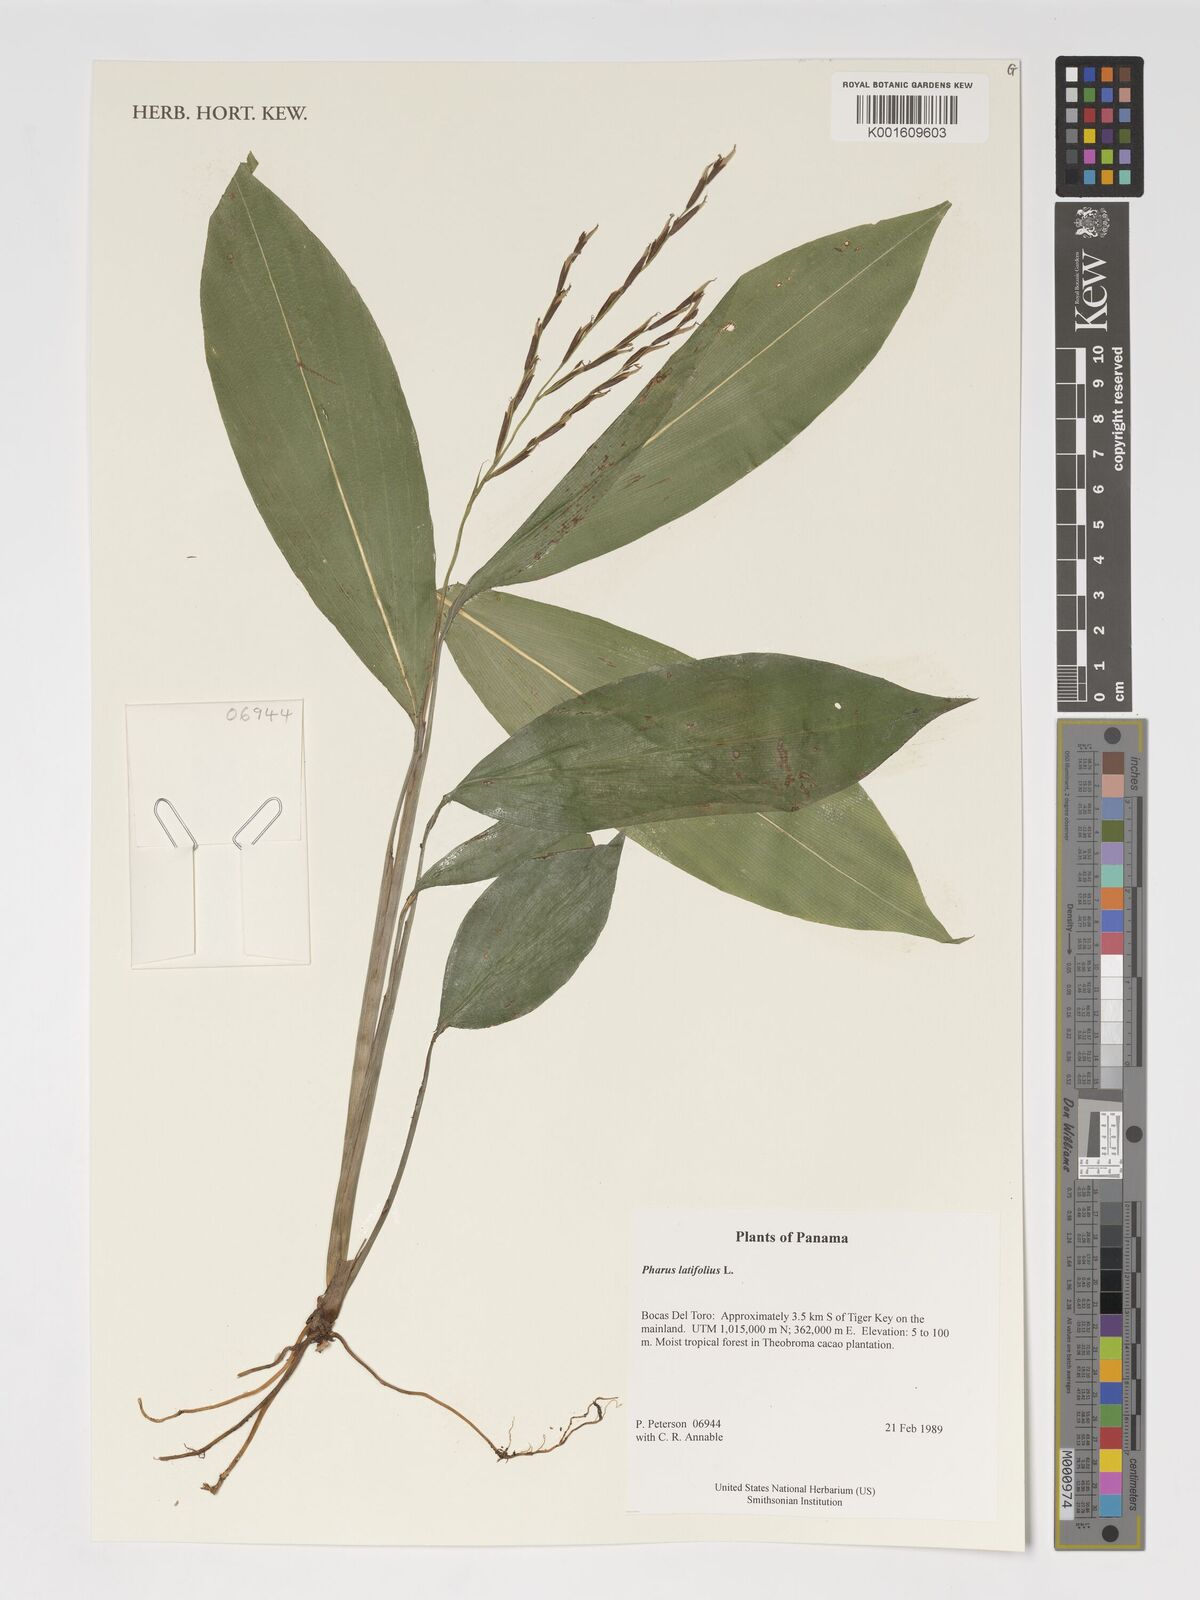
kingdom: Plantae
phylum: Tracheophyta
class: Liliopsida
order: Poales
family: Poaceae
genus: Pharus
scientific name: Pharus latifolius
